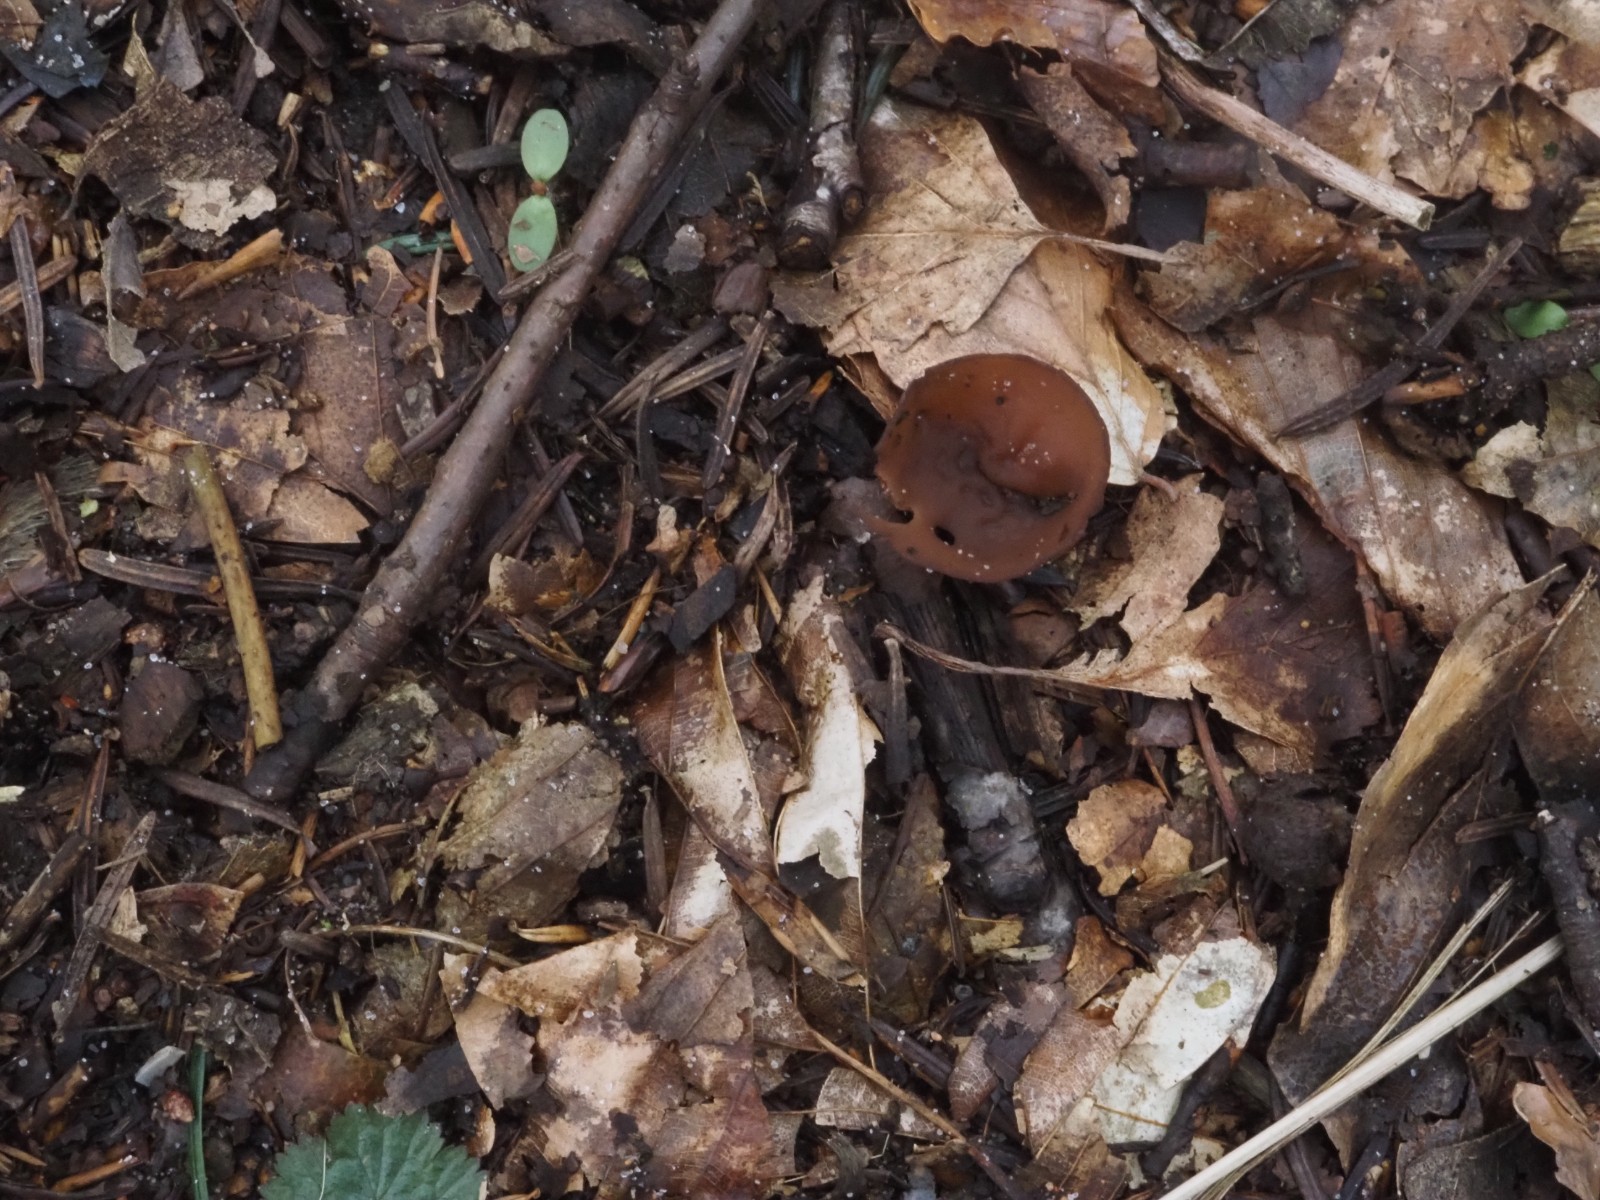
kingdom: Fungi
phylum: Ascomycota
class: Leotiomycetes
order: Helotiales
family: Sclerotiniaceae
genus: Dumontinia
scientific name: Dumontinia tuberosa
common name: anemone-knoldskive
